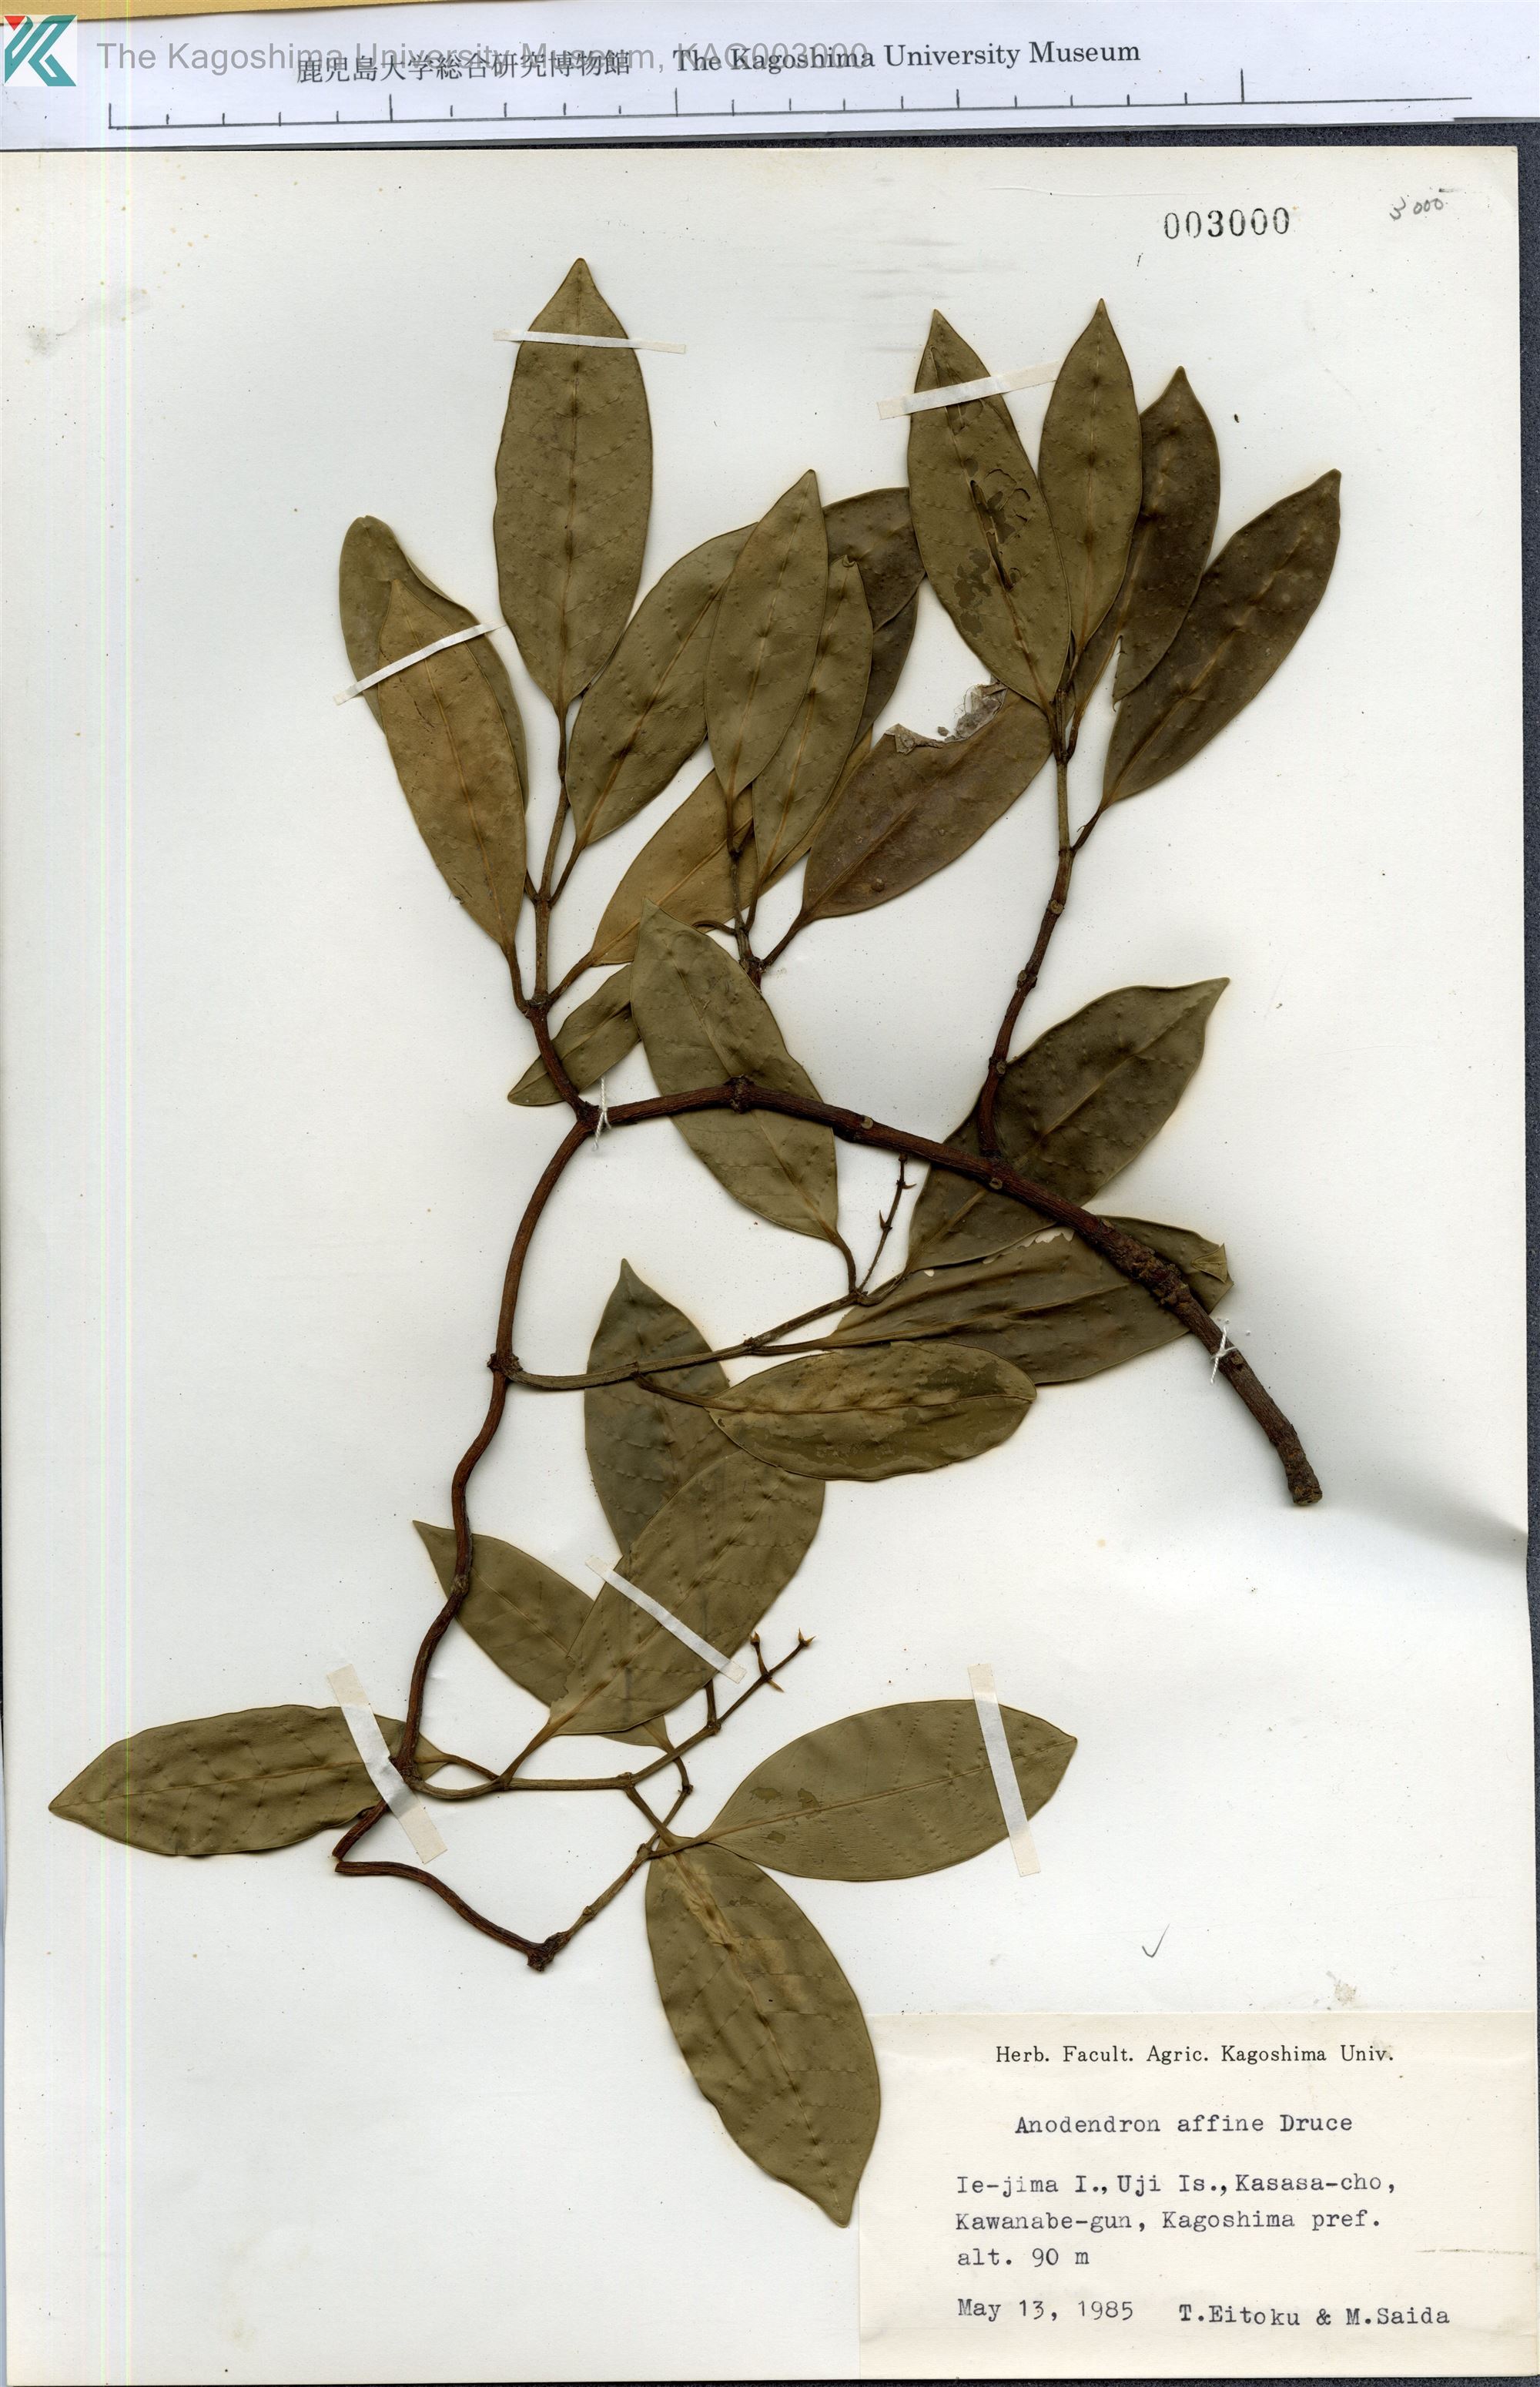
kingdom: Plantae
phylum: Tracheophyta
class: Magnoliopsida
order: Gentianales
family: Apocynaceae
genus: Anodendron
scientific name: Anodendron affine
